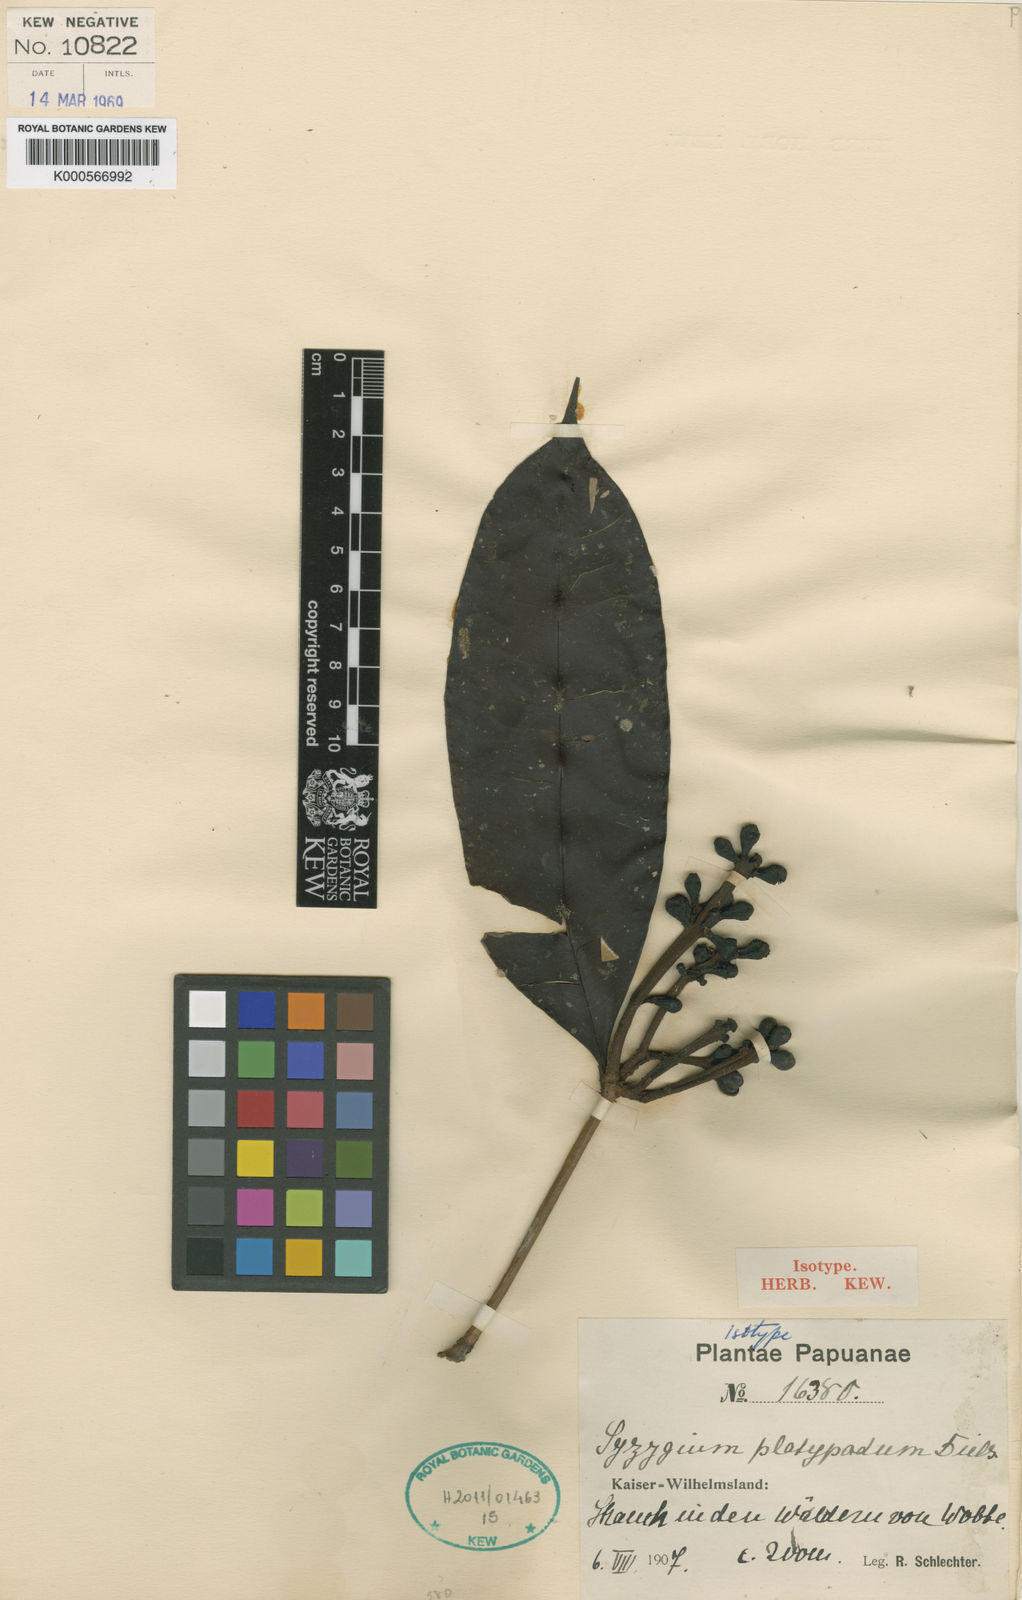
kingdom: Plantae
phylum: Tracheophyta
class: Magnoliopsida
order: Myrtales
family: Myrtaceae
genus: Syzygium
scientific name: Syzygium platypodum
